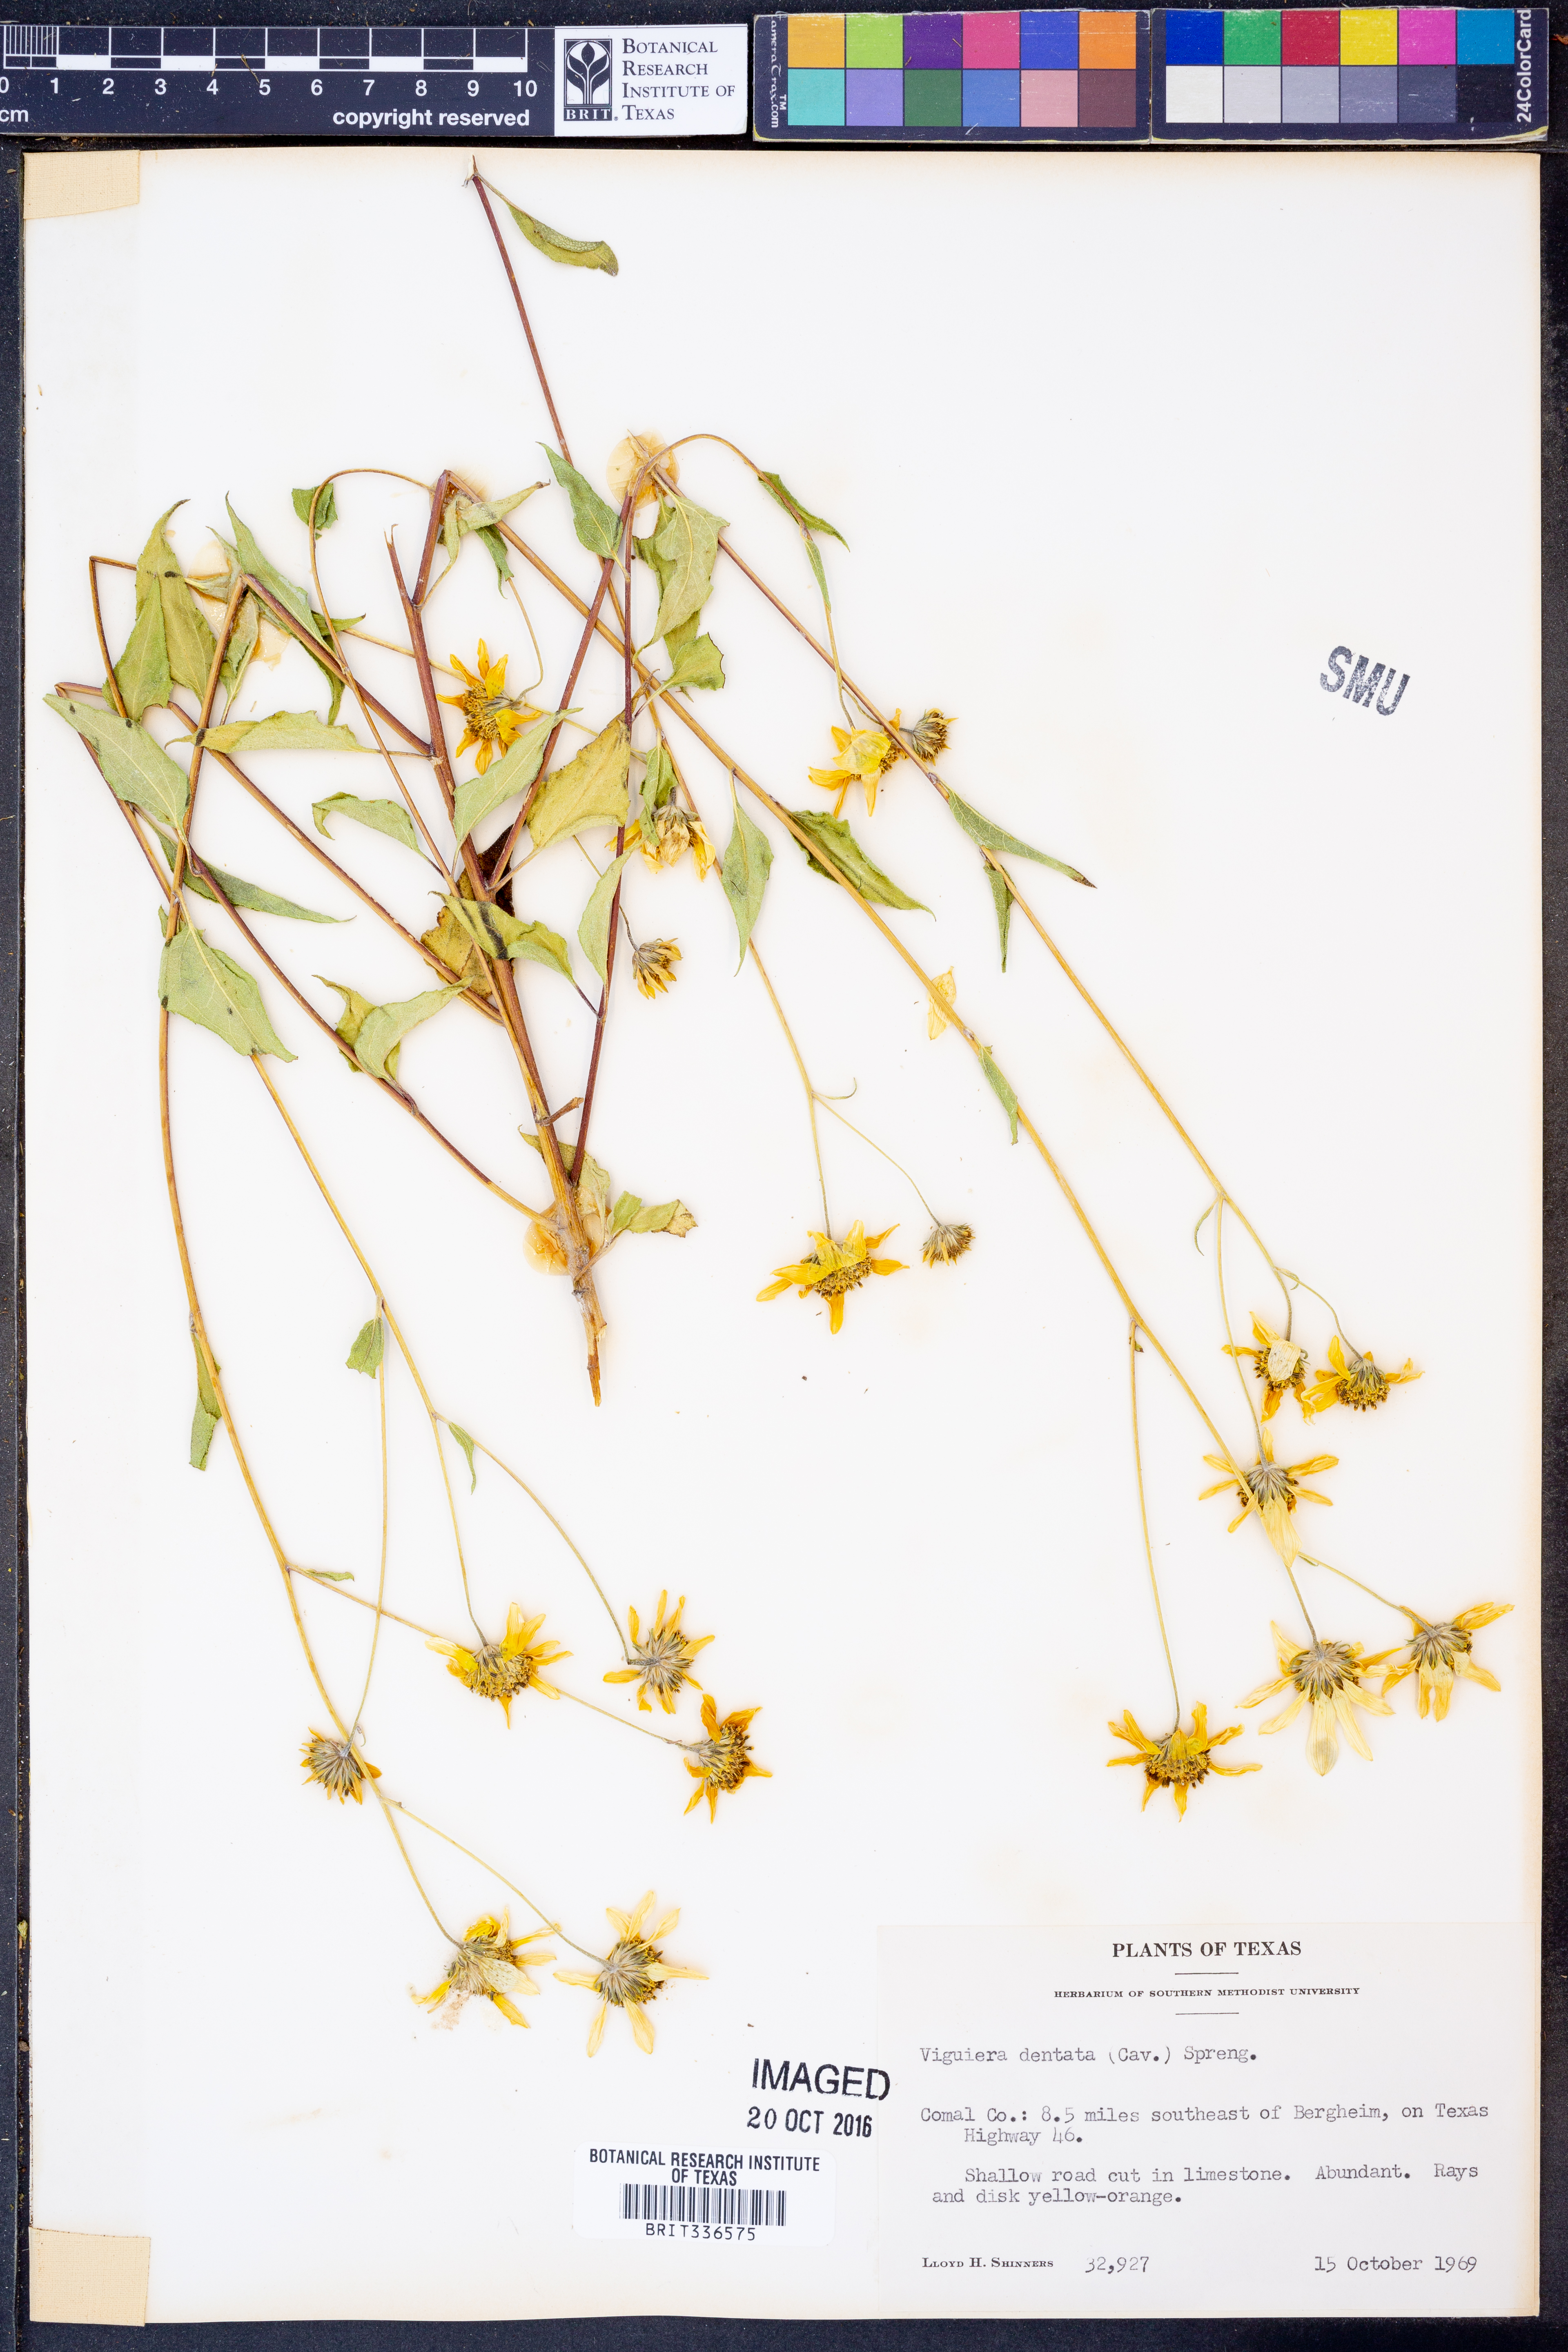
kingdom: Plantae
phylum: Tracheophyta
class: Magnoliopsida
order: Asterales
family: Asteraceae
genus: Viguiera
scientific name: Viguiera dentata
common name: Toothleaf
